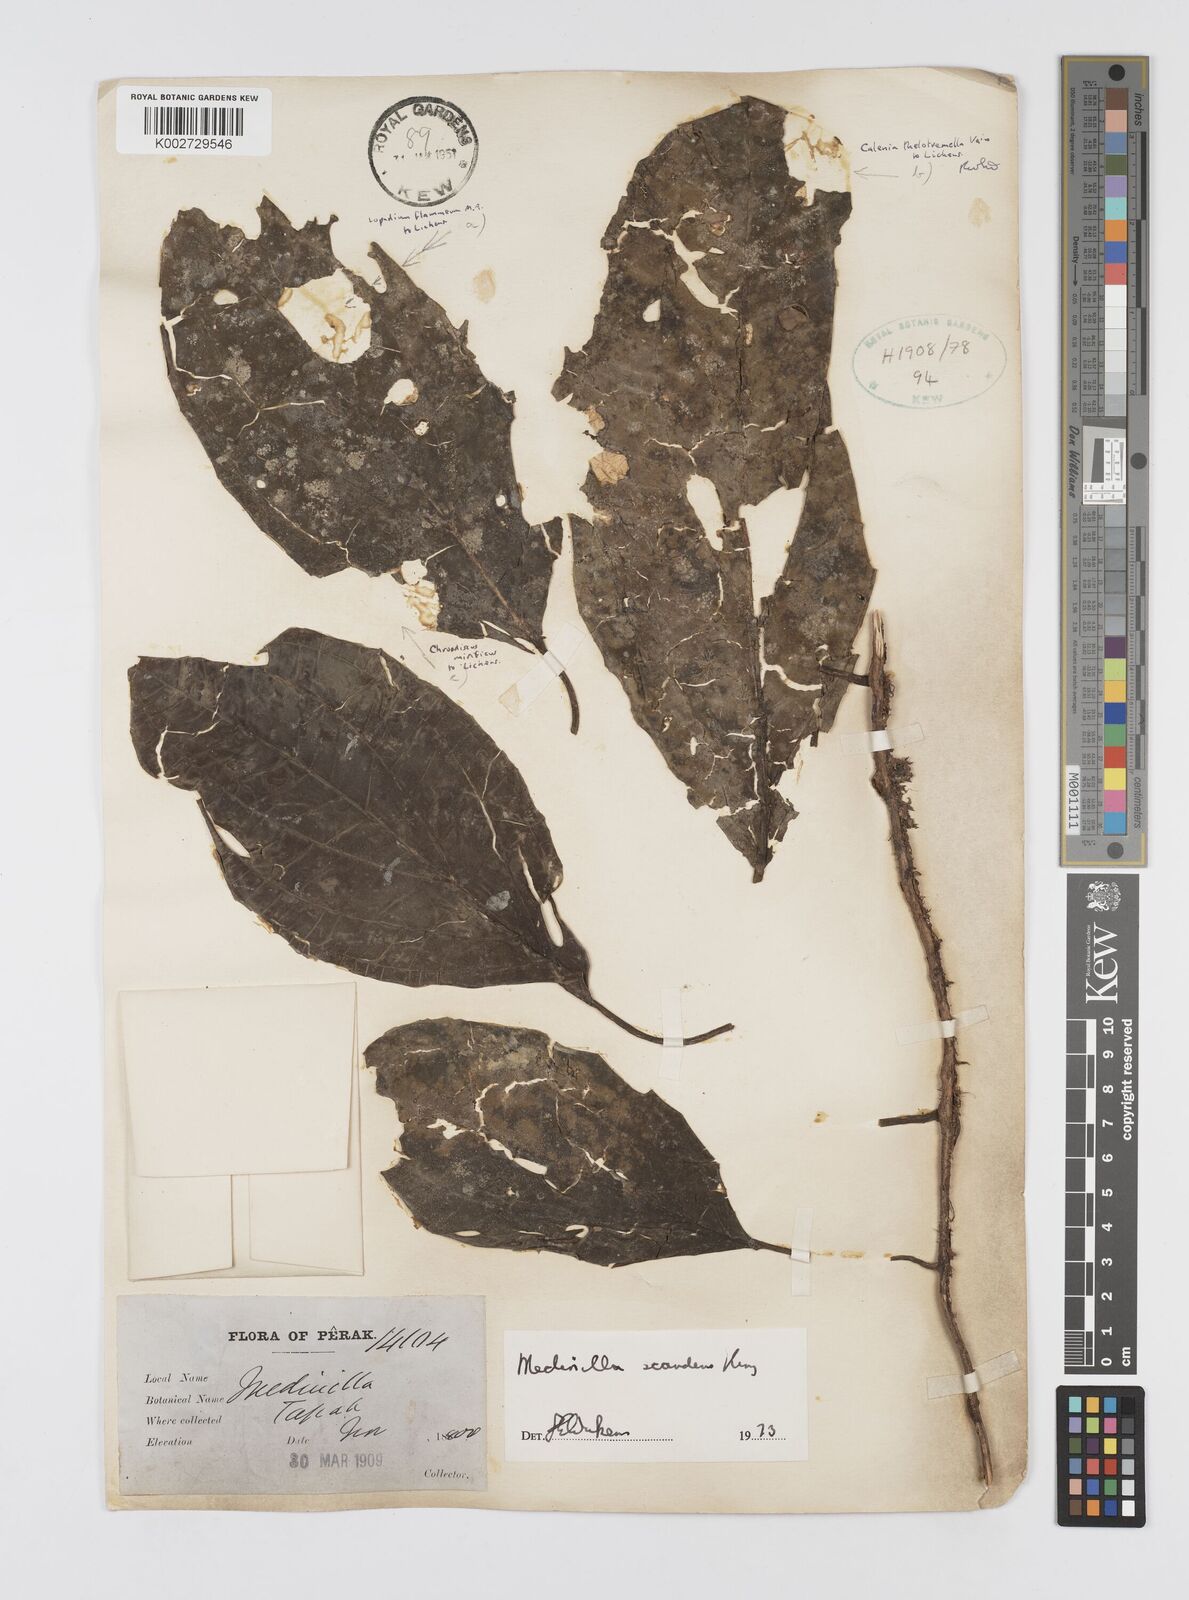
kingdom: Plantae
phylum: Tracheophyta
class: Magnoliopsida
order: Myrtales
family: Melastomataceae
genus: Heteroblemma
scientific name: Heteroblemma alternifolium
